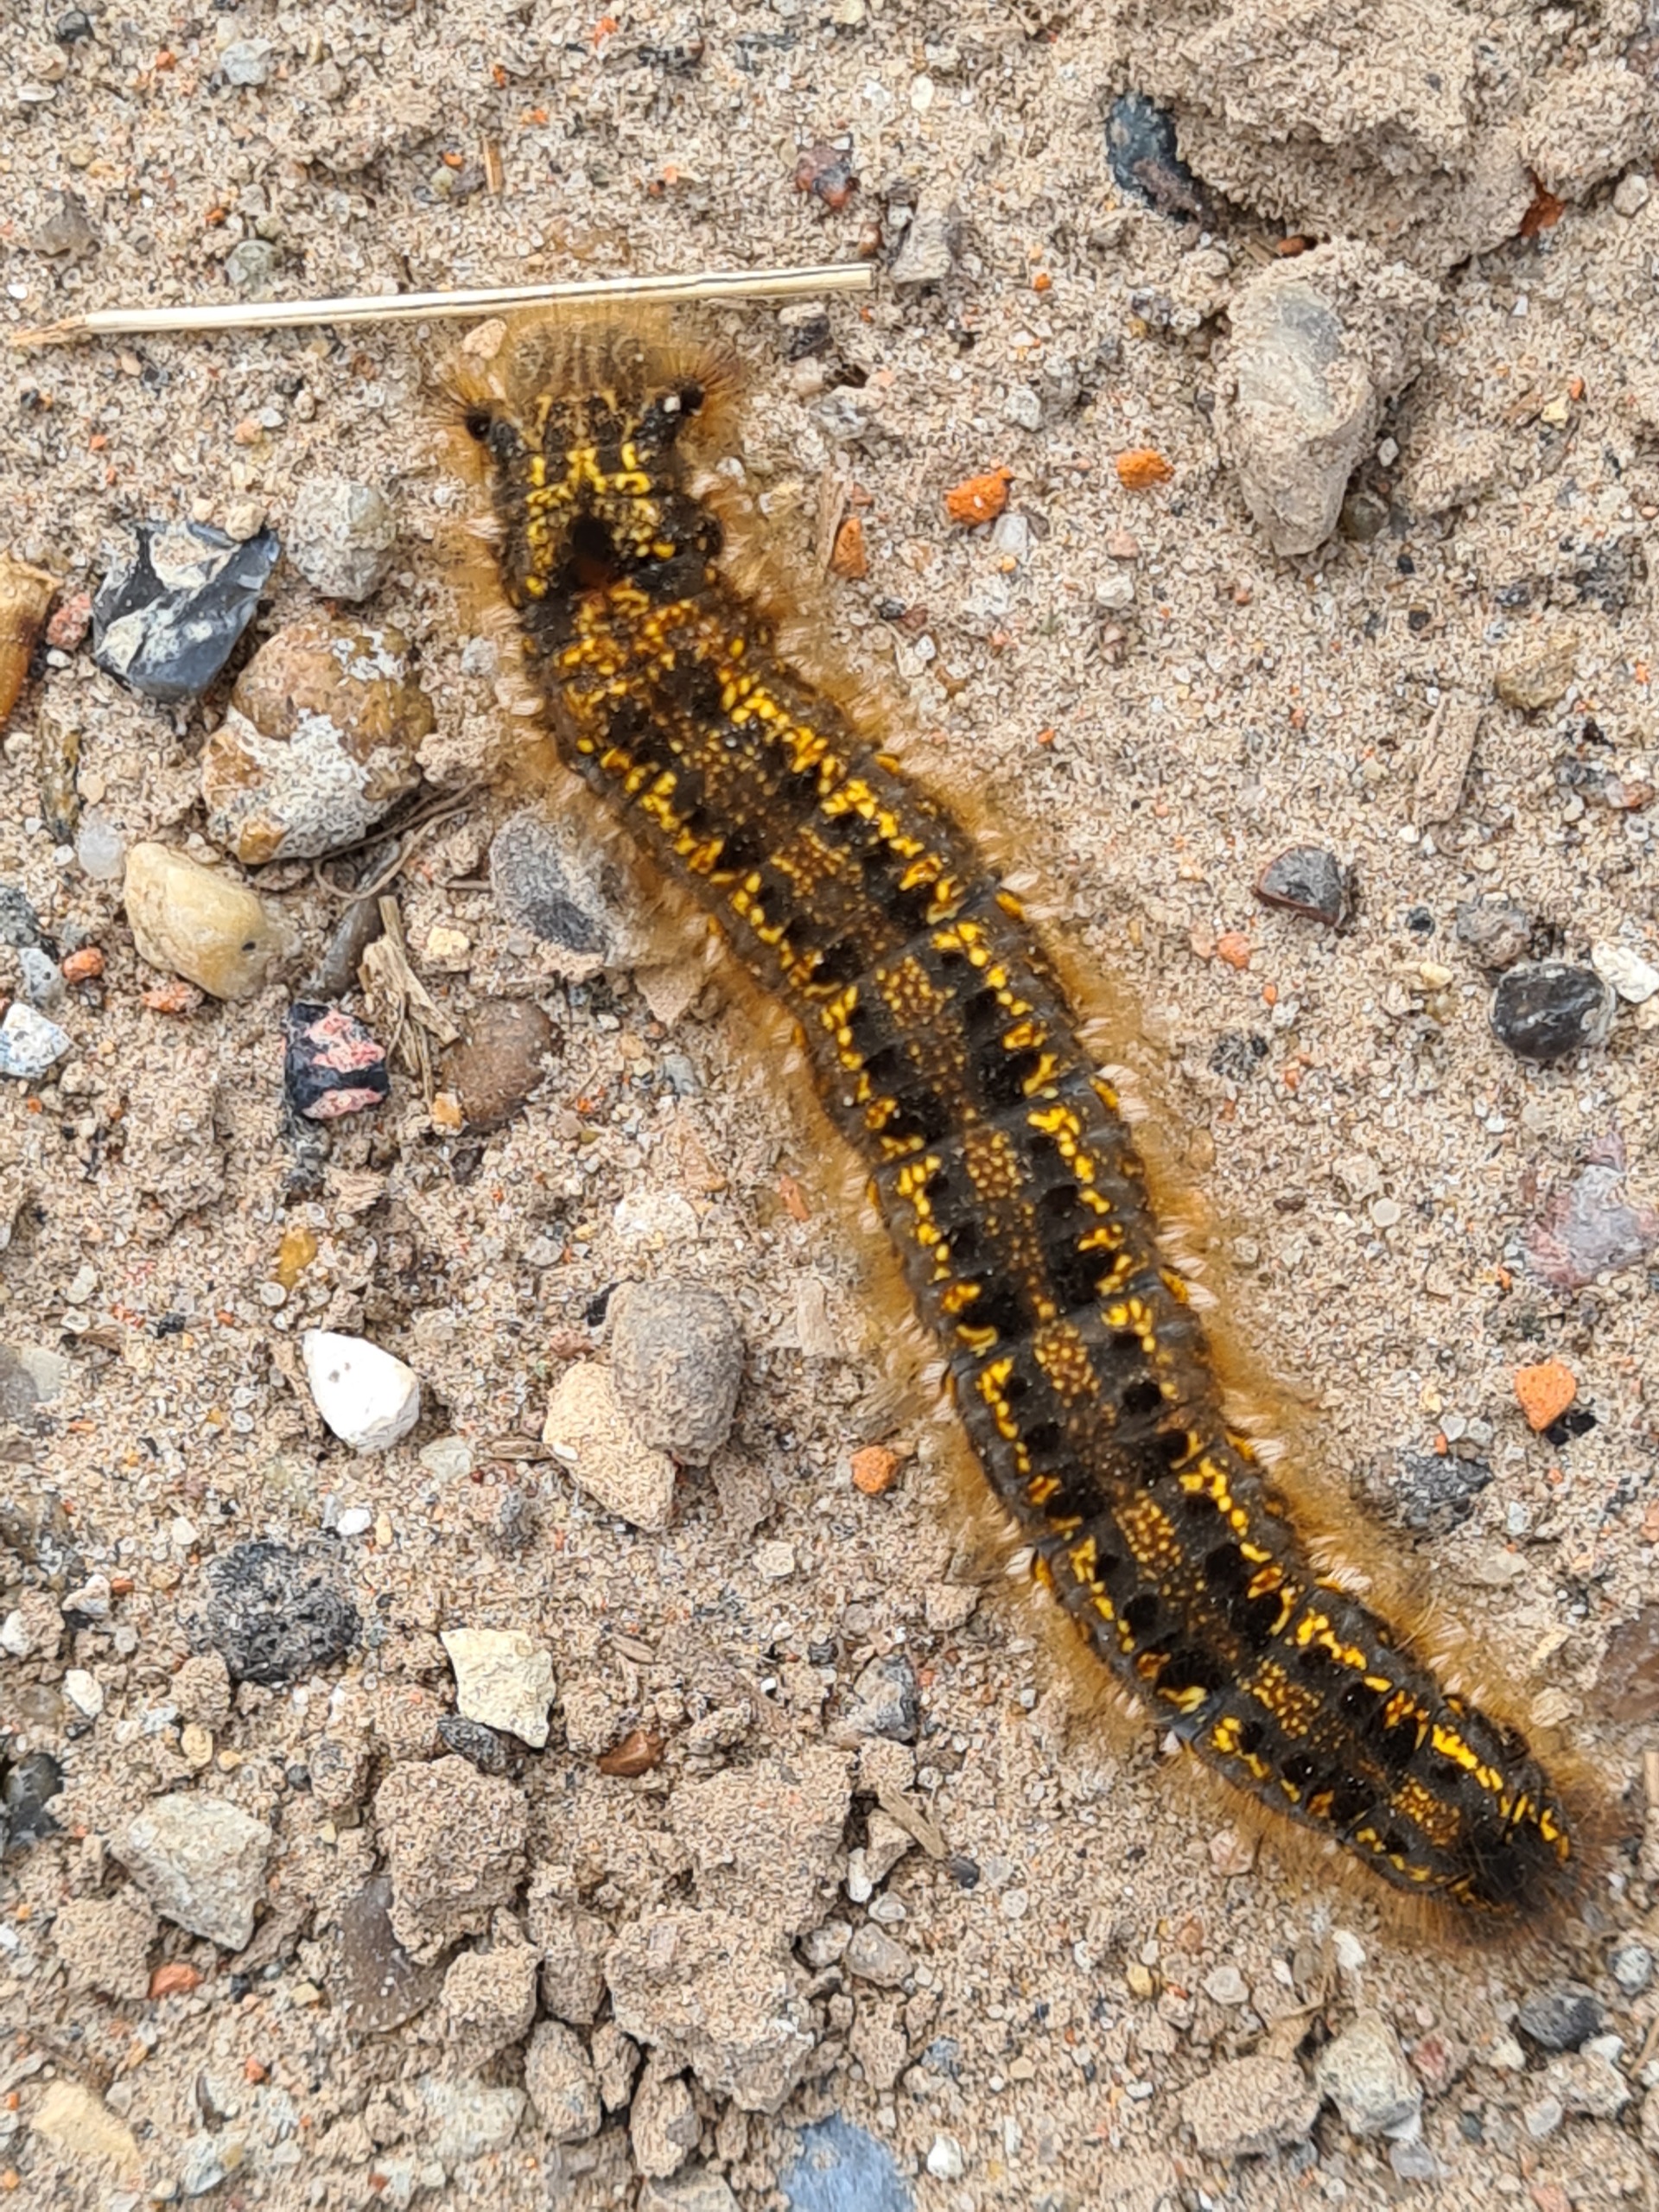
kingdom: Animalia
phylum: Arthropoda
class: Insecta
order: Lepidoptera
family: Lasiocampidae
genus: Euthrix
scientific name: Euthrix potatoria
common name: Græsspinder
